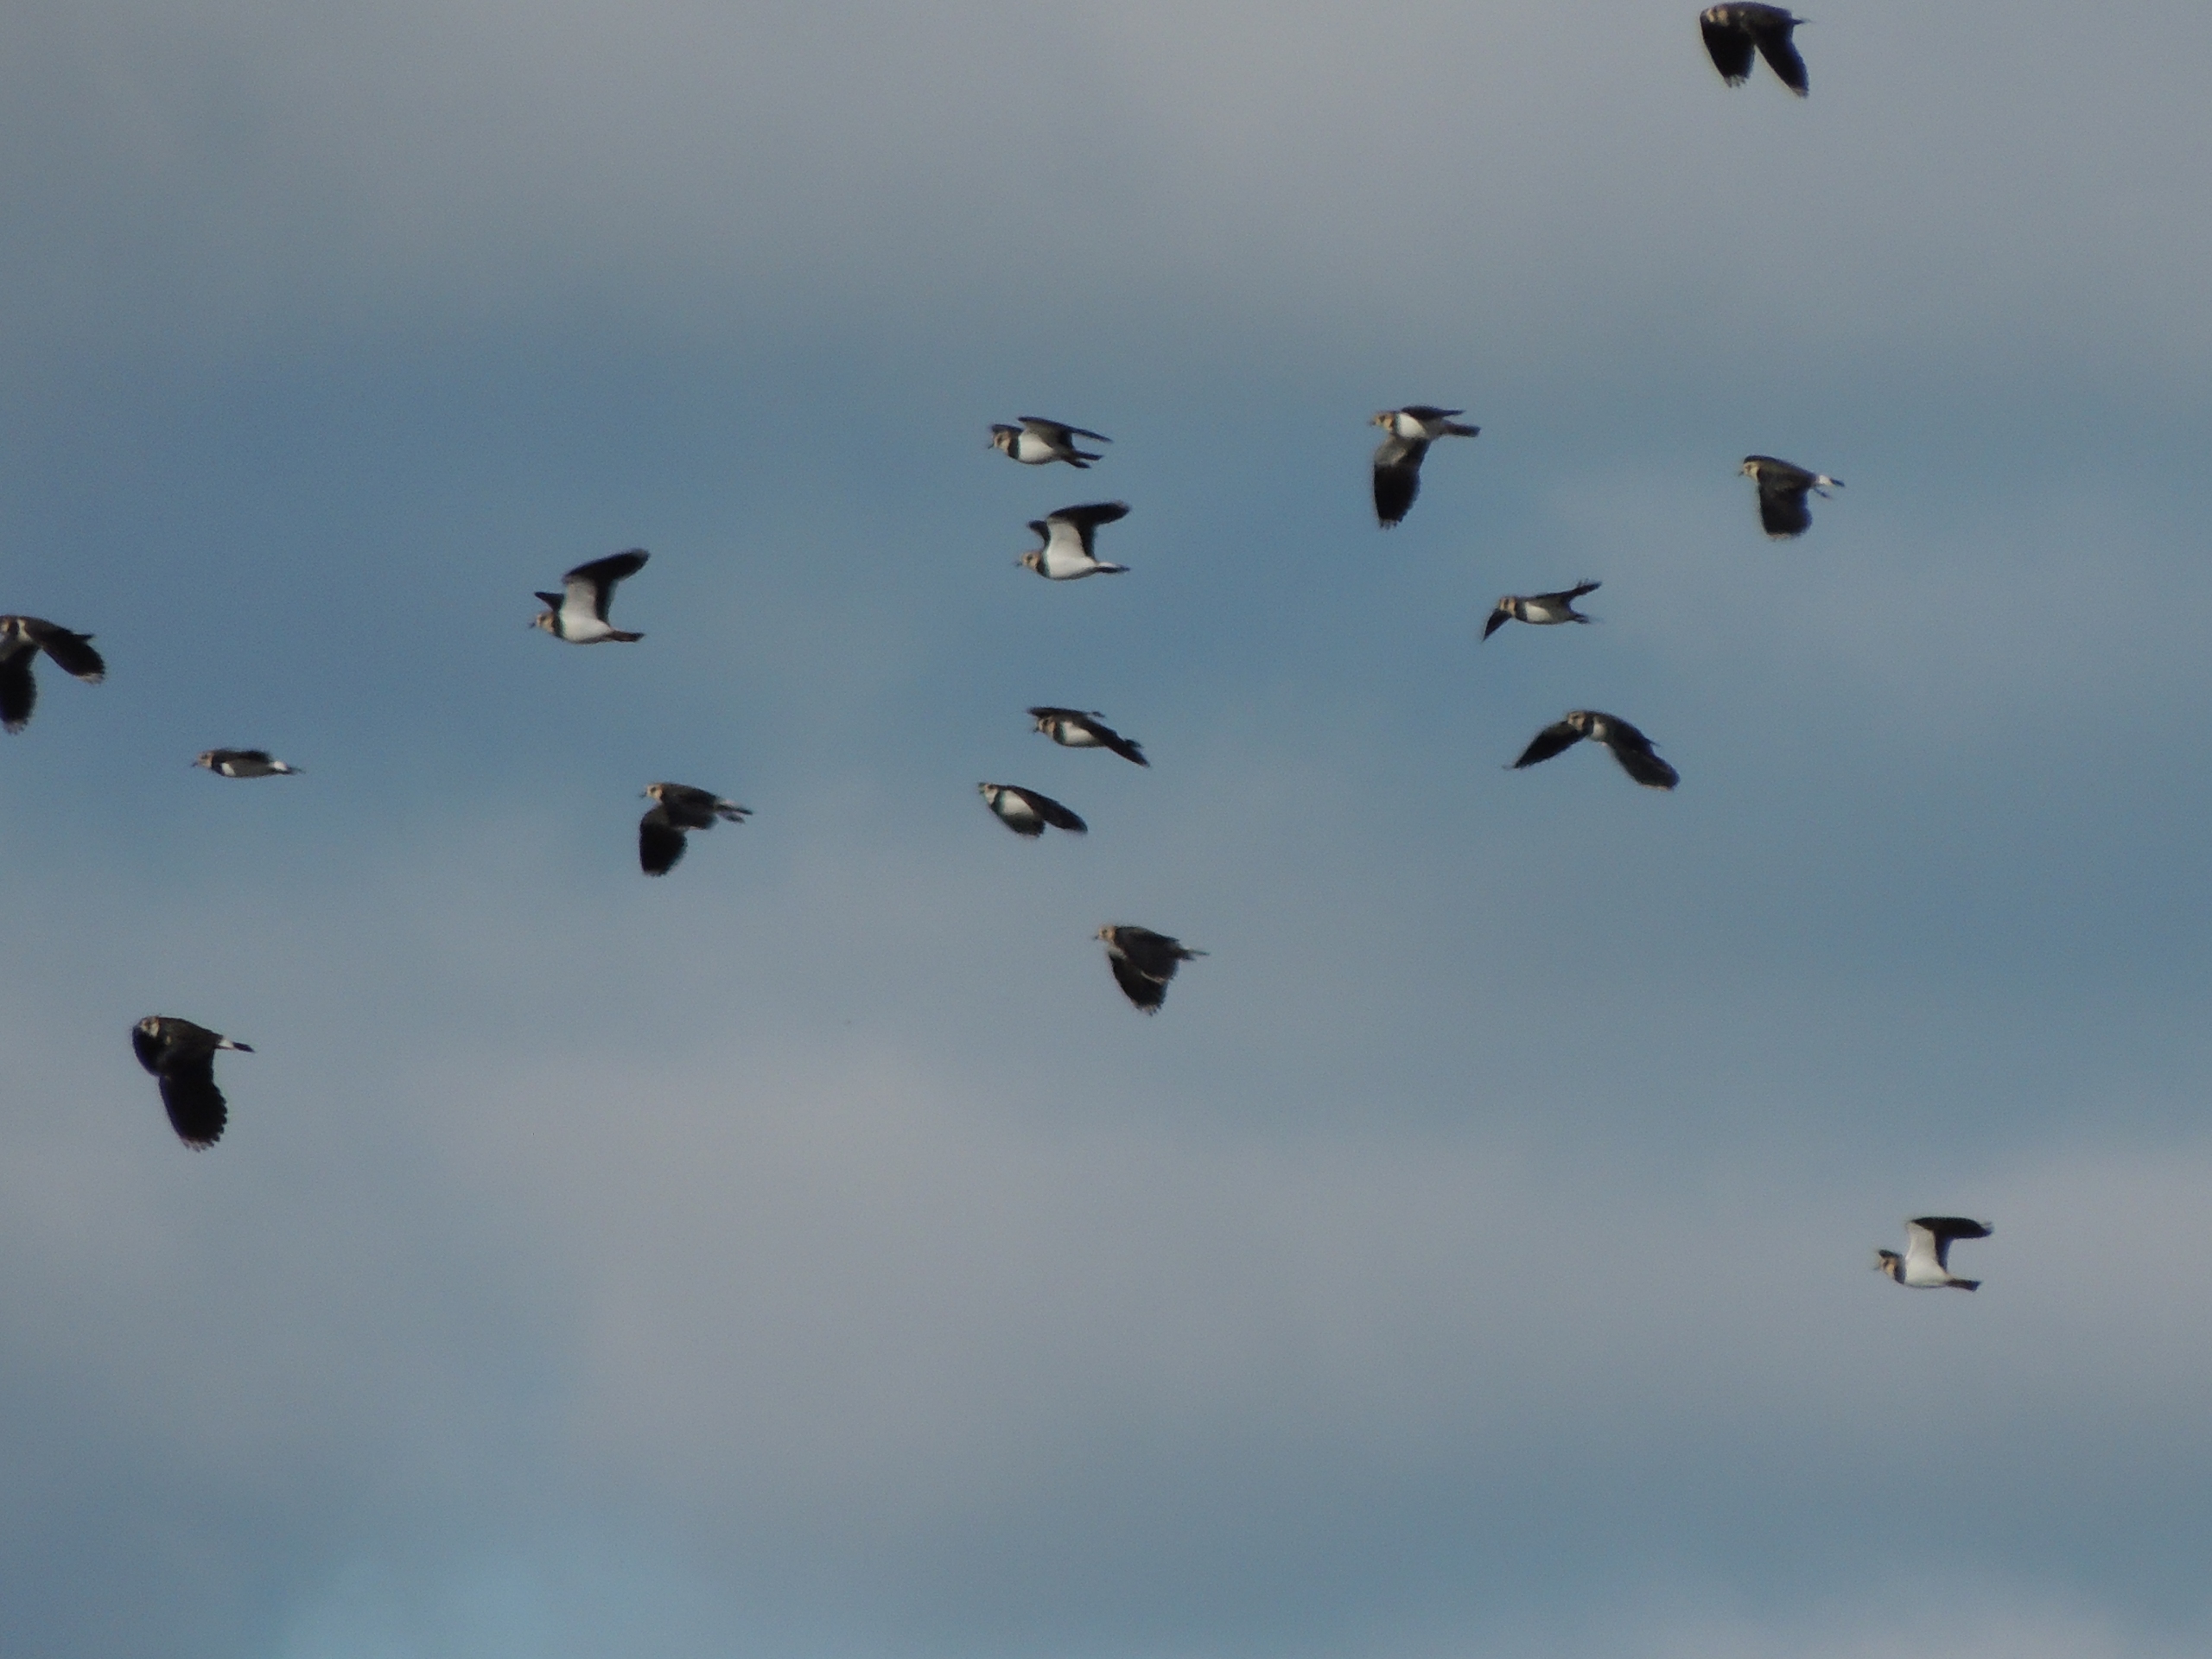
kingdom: Animalia
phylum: Chordata
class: Aves
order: Charadriiformes
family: Charadriidae
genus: Vanellus
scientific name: Vanellus vanellus
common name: Vibe
